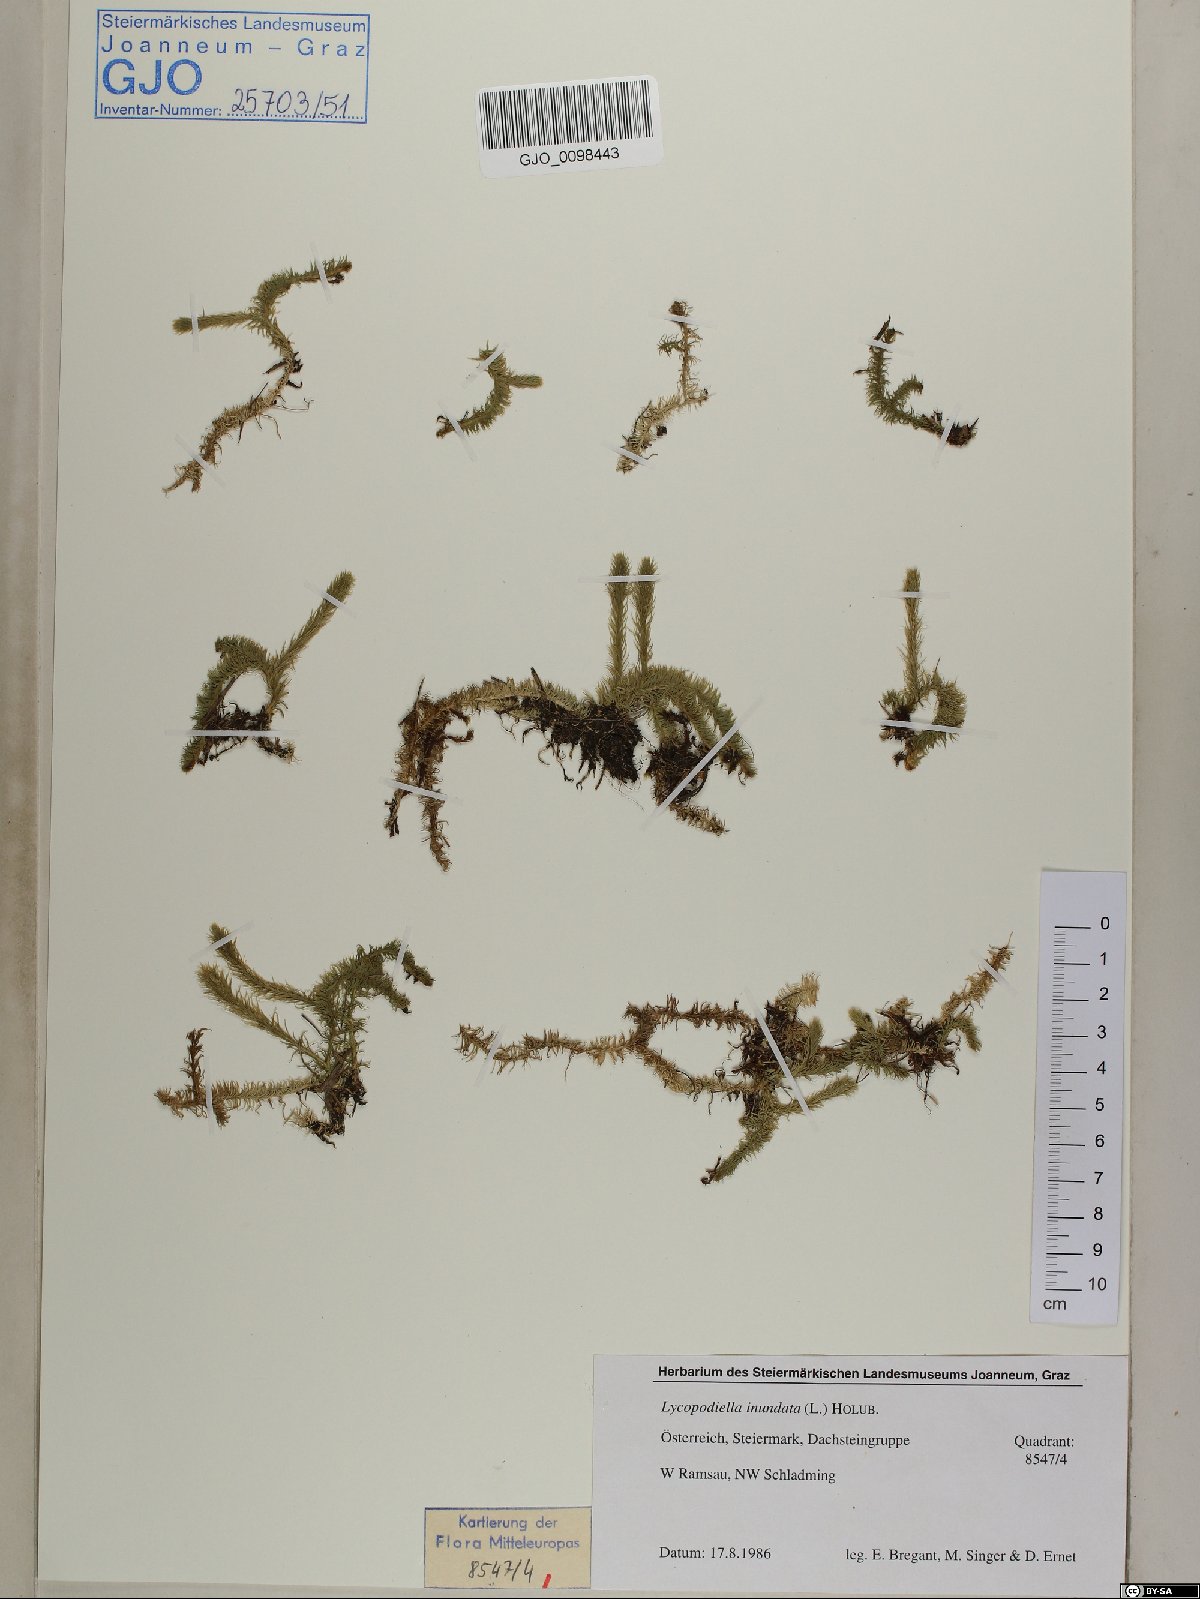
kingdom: Plantae
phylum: Tracheophyta
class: Lycopodiopsida
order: Lycopodiales
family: Lycopodiaceae
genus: Lycopodiella
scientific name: Lycopodiella inundata
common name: Marsh clubmoss
